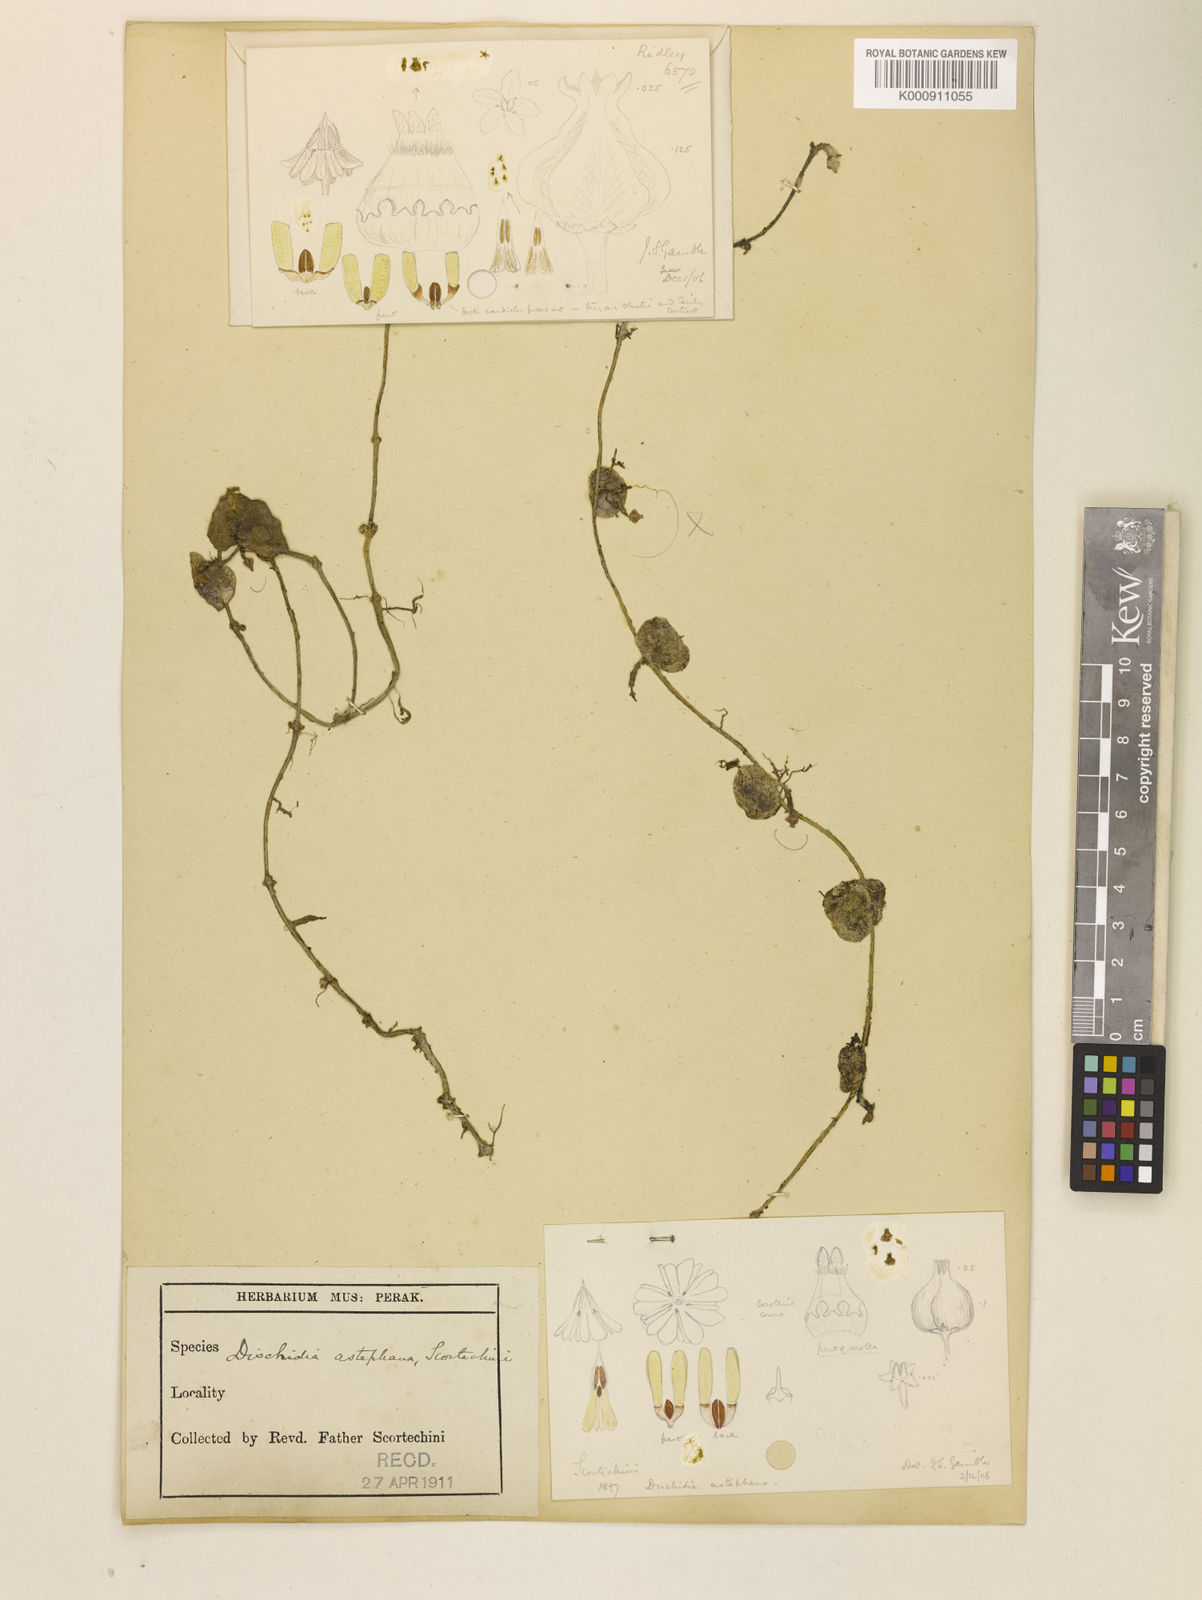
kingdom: Plantae
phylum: Tracheophyta
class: Magnoliopsida
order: Gentianales
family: Apocynaceae
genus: Dischidia
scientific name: Dischidia astephana
